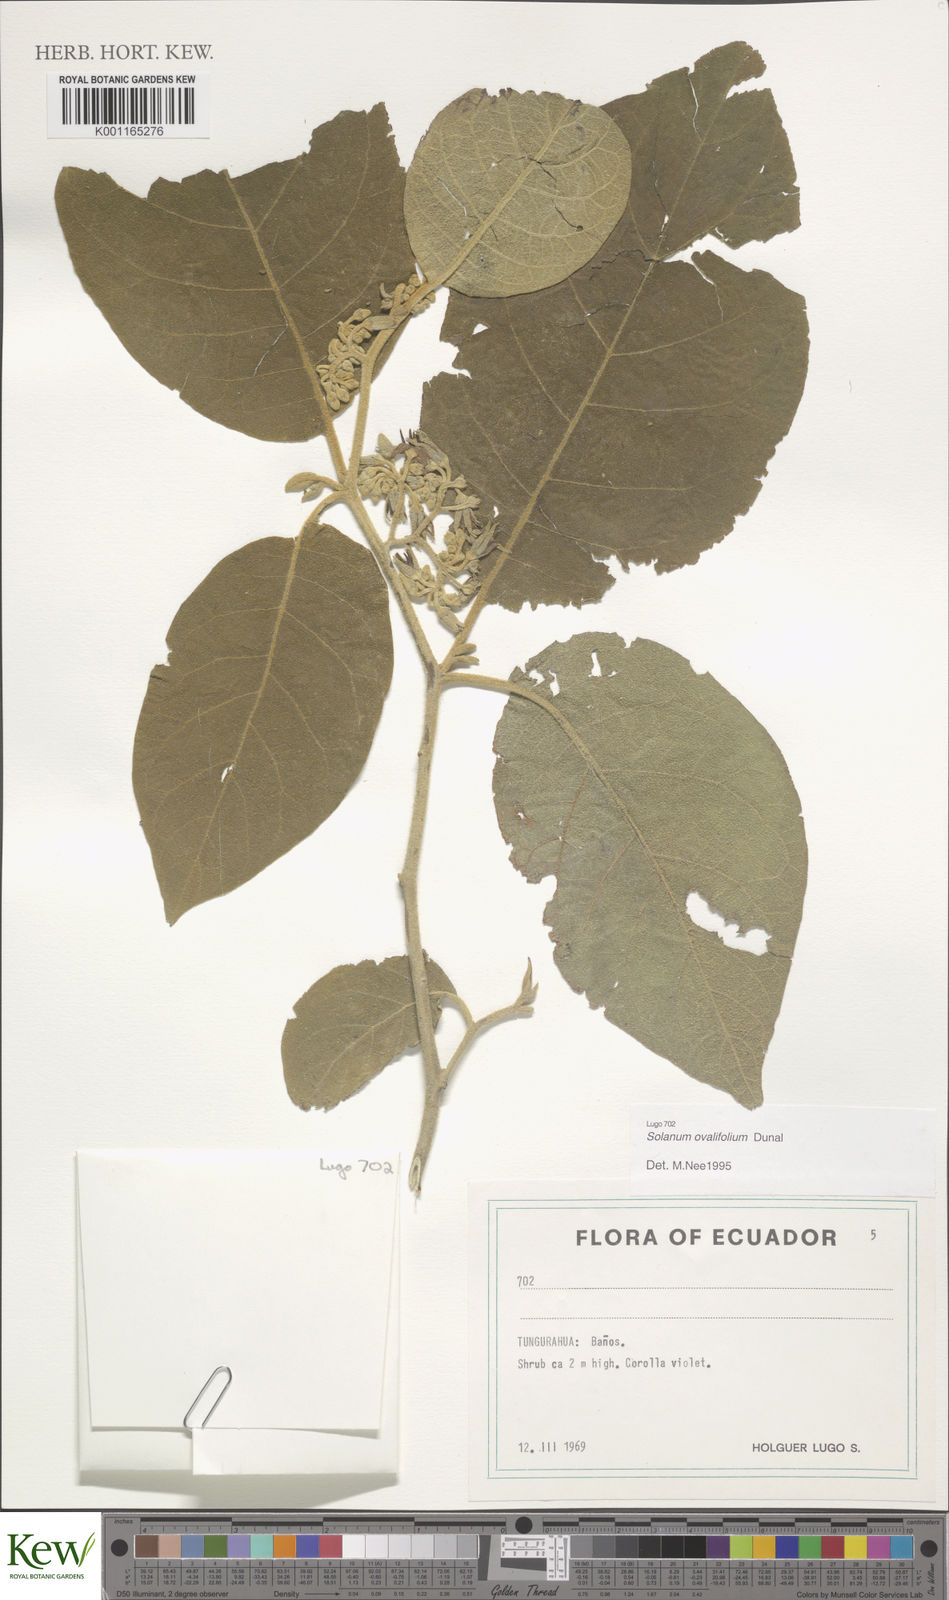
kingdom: Plantae
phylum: Tracheophyta
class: Magnoliopsida
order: Solanales
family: Solanaceae
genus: Solanum
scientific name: Solanum ovalifolium
